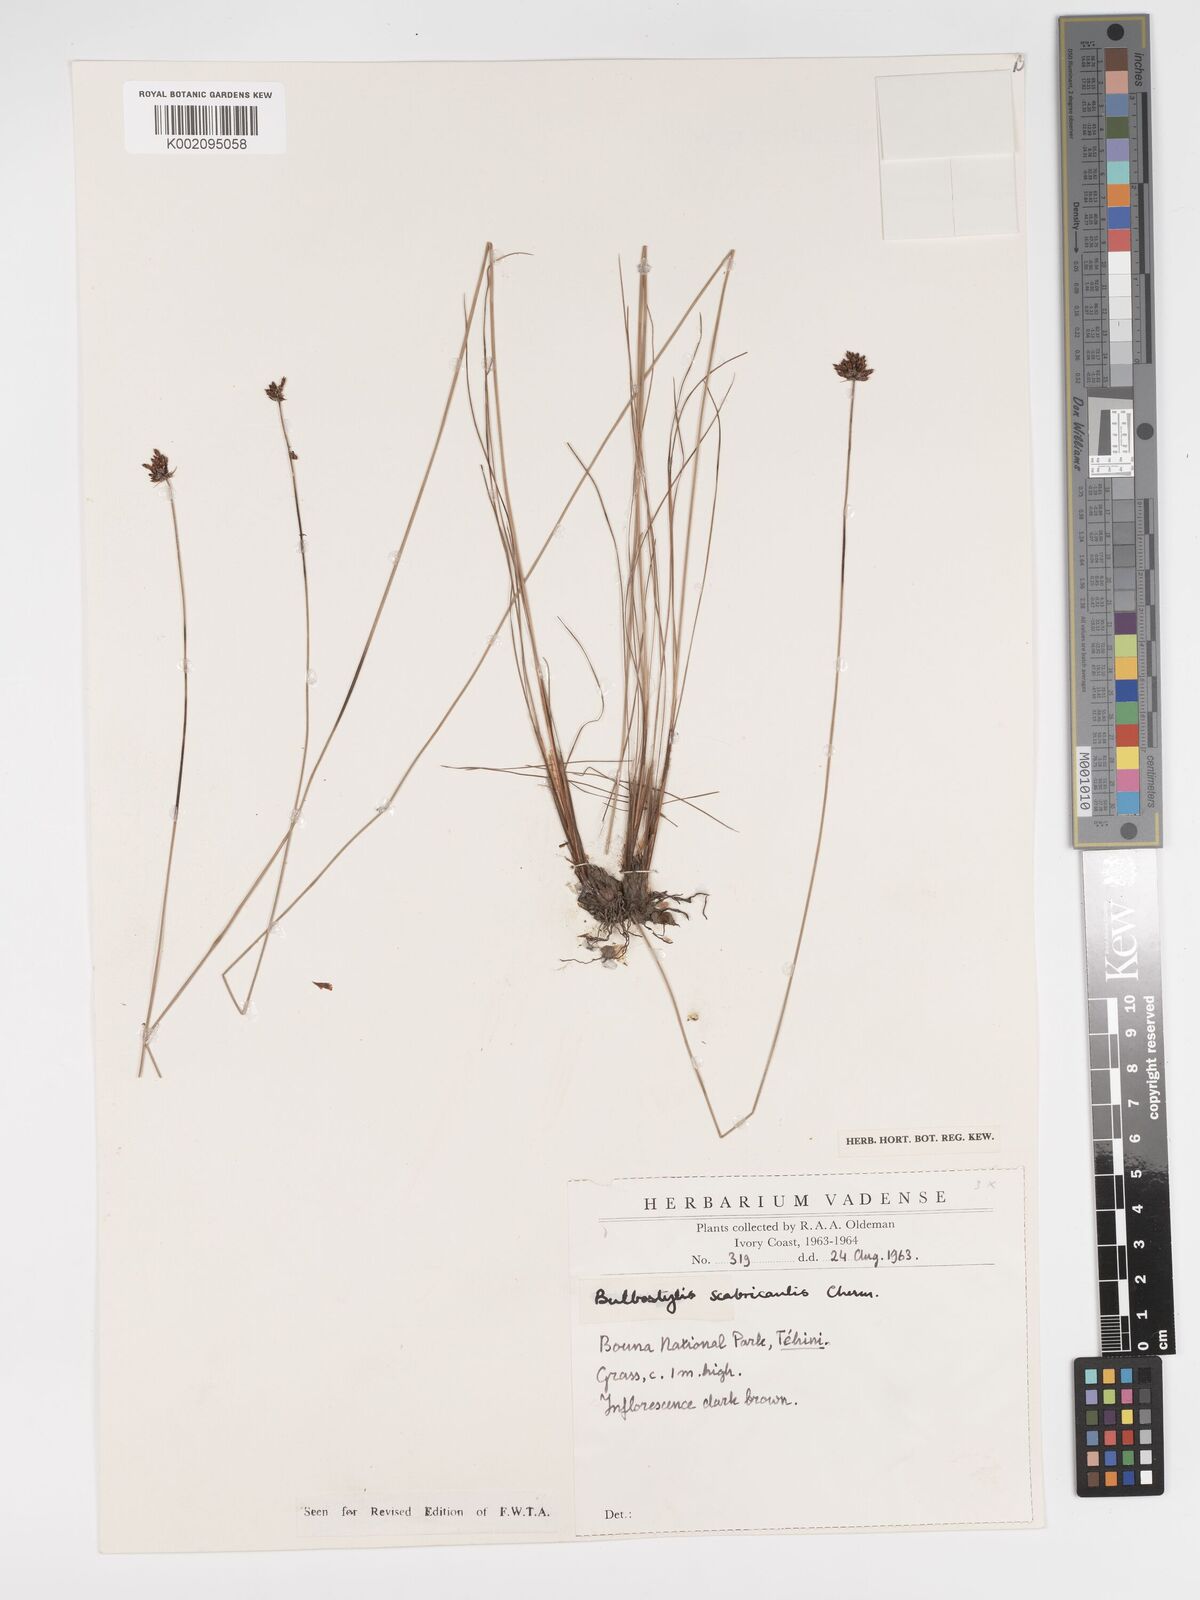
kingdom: Plantae
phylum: Tracheophyta
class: Liliopsida
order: Poales
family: Cyperaceae
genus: Bulbostylis
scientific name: Bulbostylis scabricaulis
